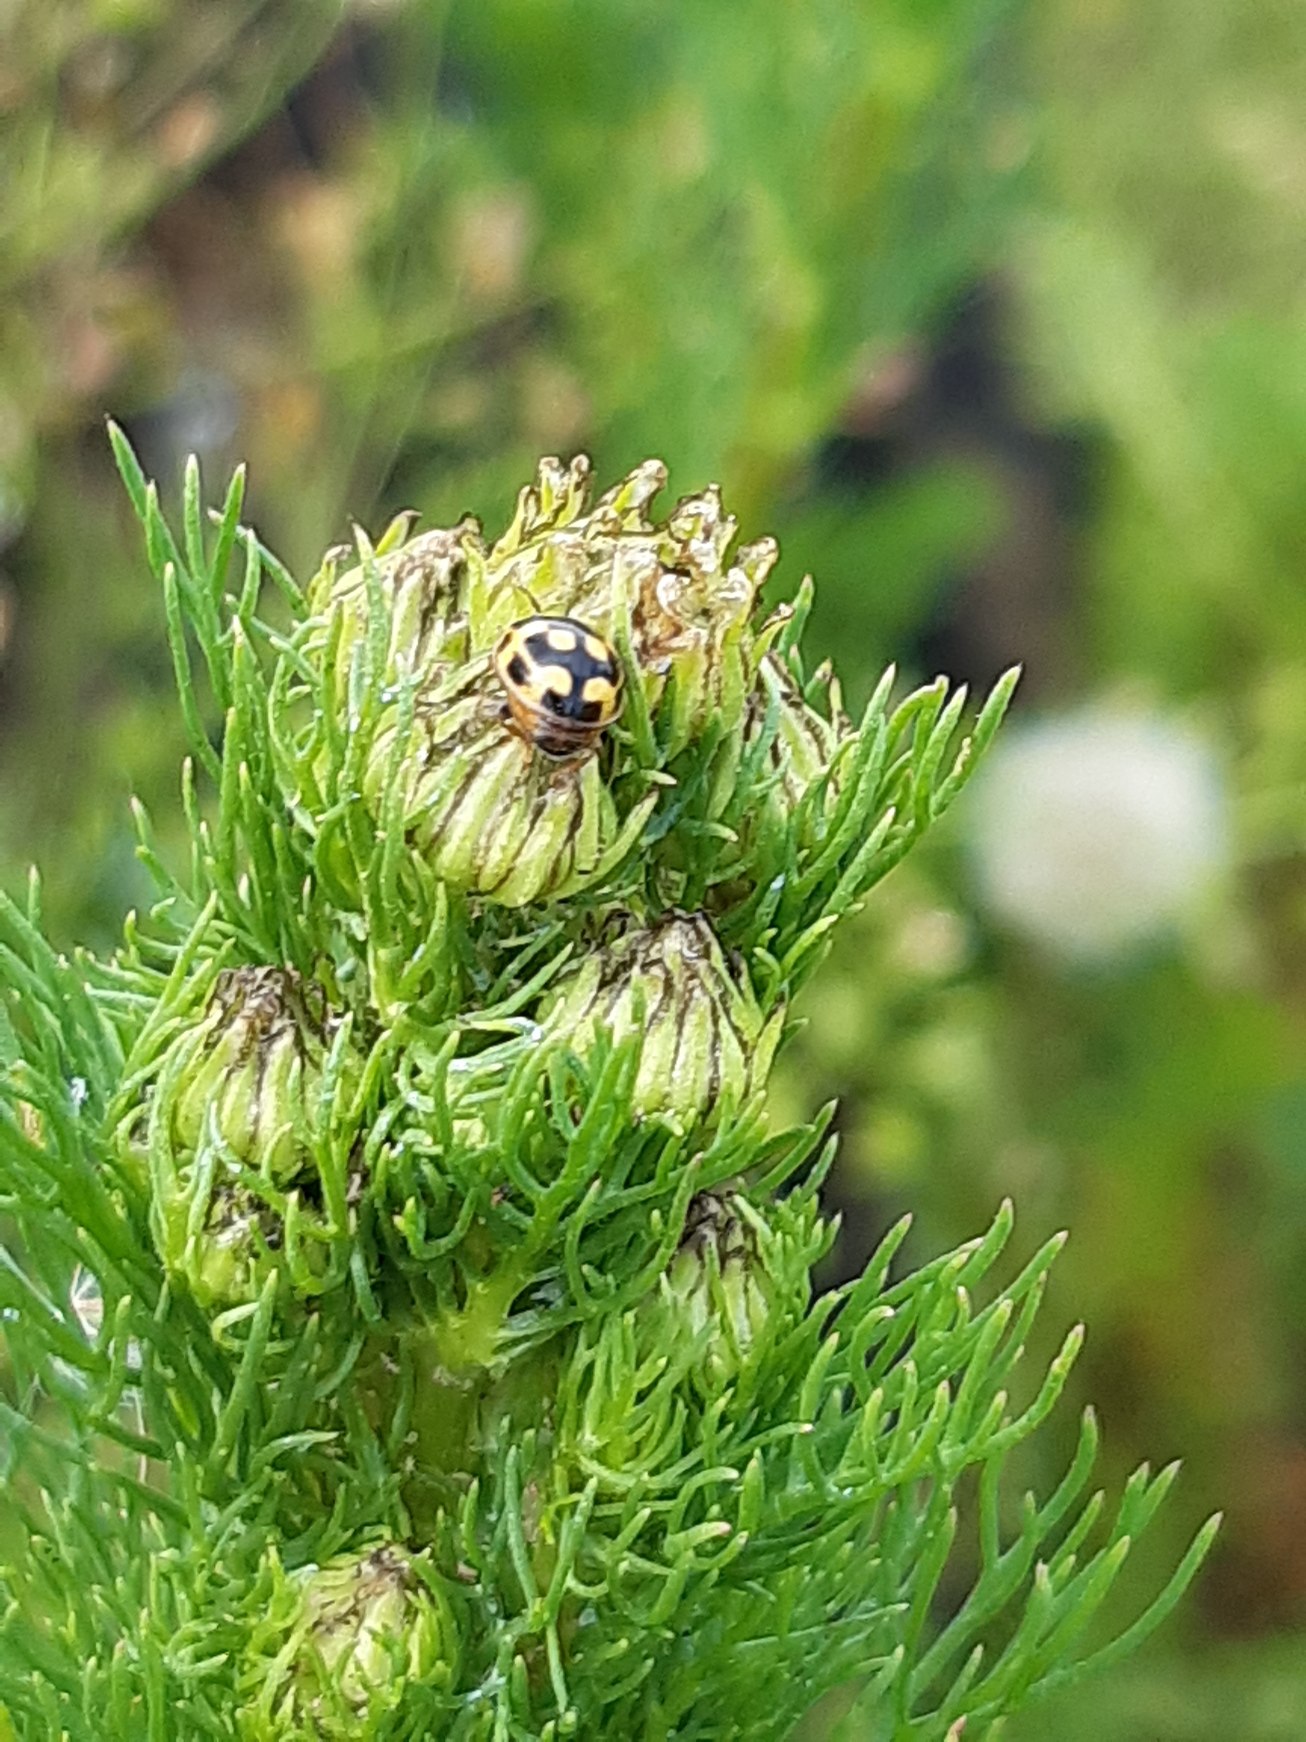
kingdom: Animalia
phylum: Arthropoda
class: Insecta
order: Coleoptera
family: Coccinellidae
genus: Propylaea
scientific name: Propylaea quatuordecimpunctata
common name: Skakbræt
